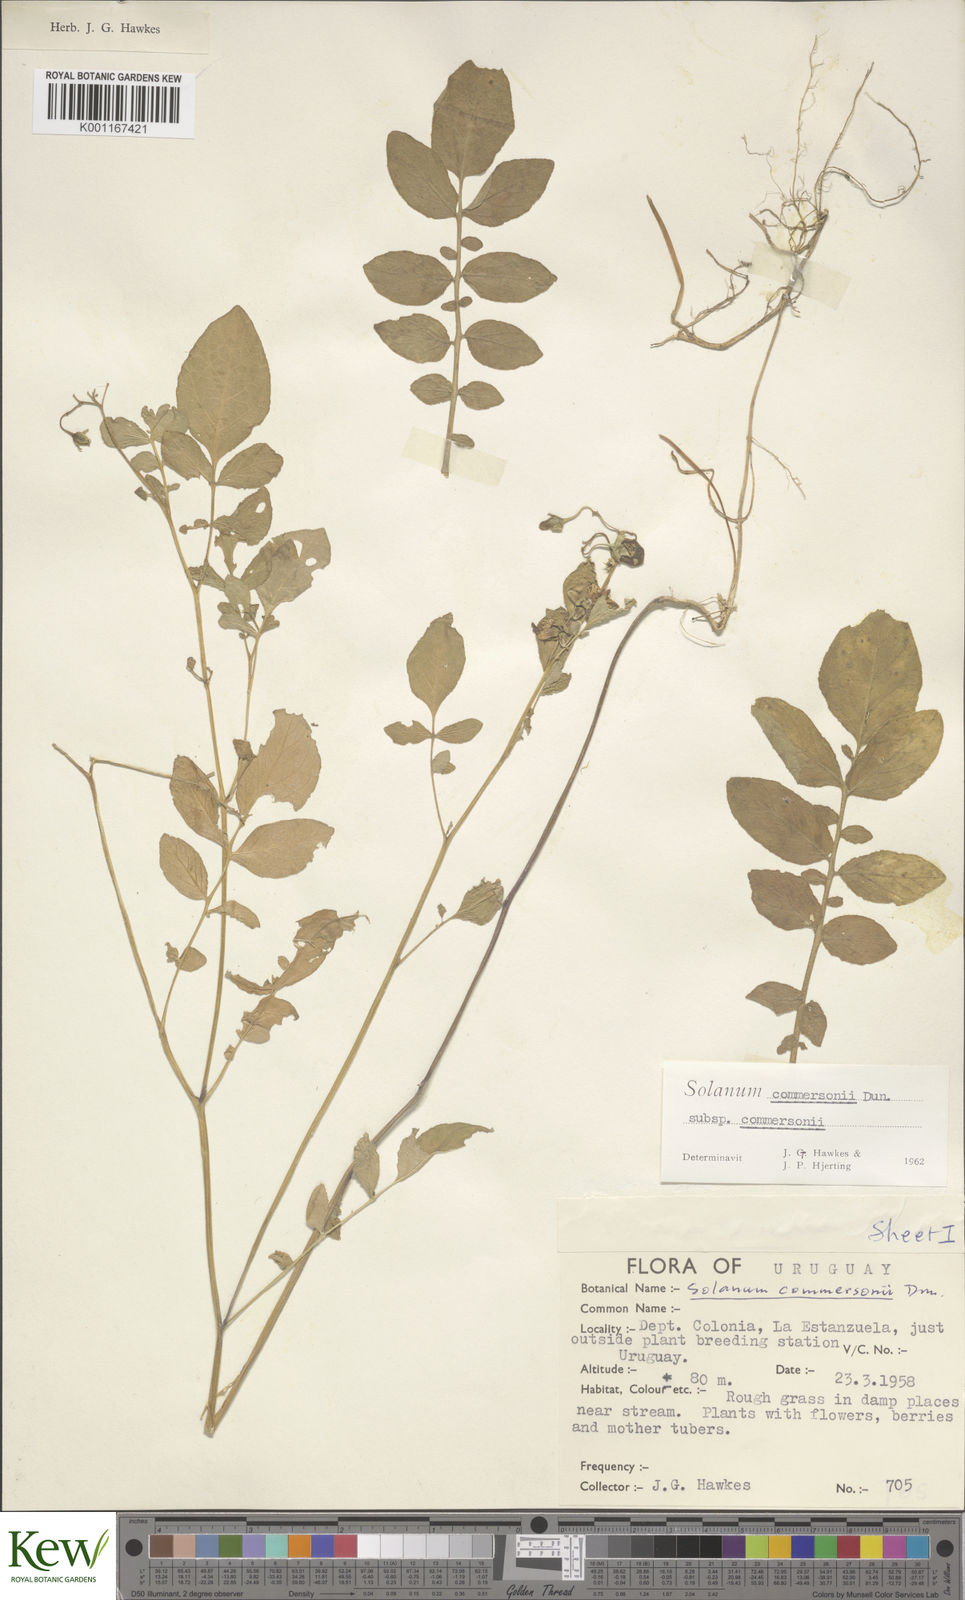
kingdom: Plantae
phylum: Tracheophyta
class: Magnoliopsida
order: Solanales
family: Solanaceae
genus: Solanum
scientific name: Solanum commersonii
